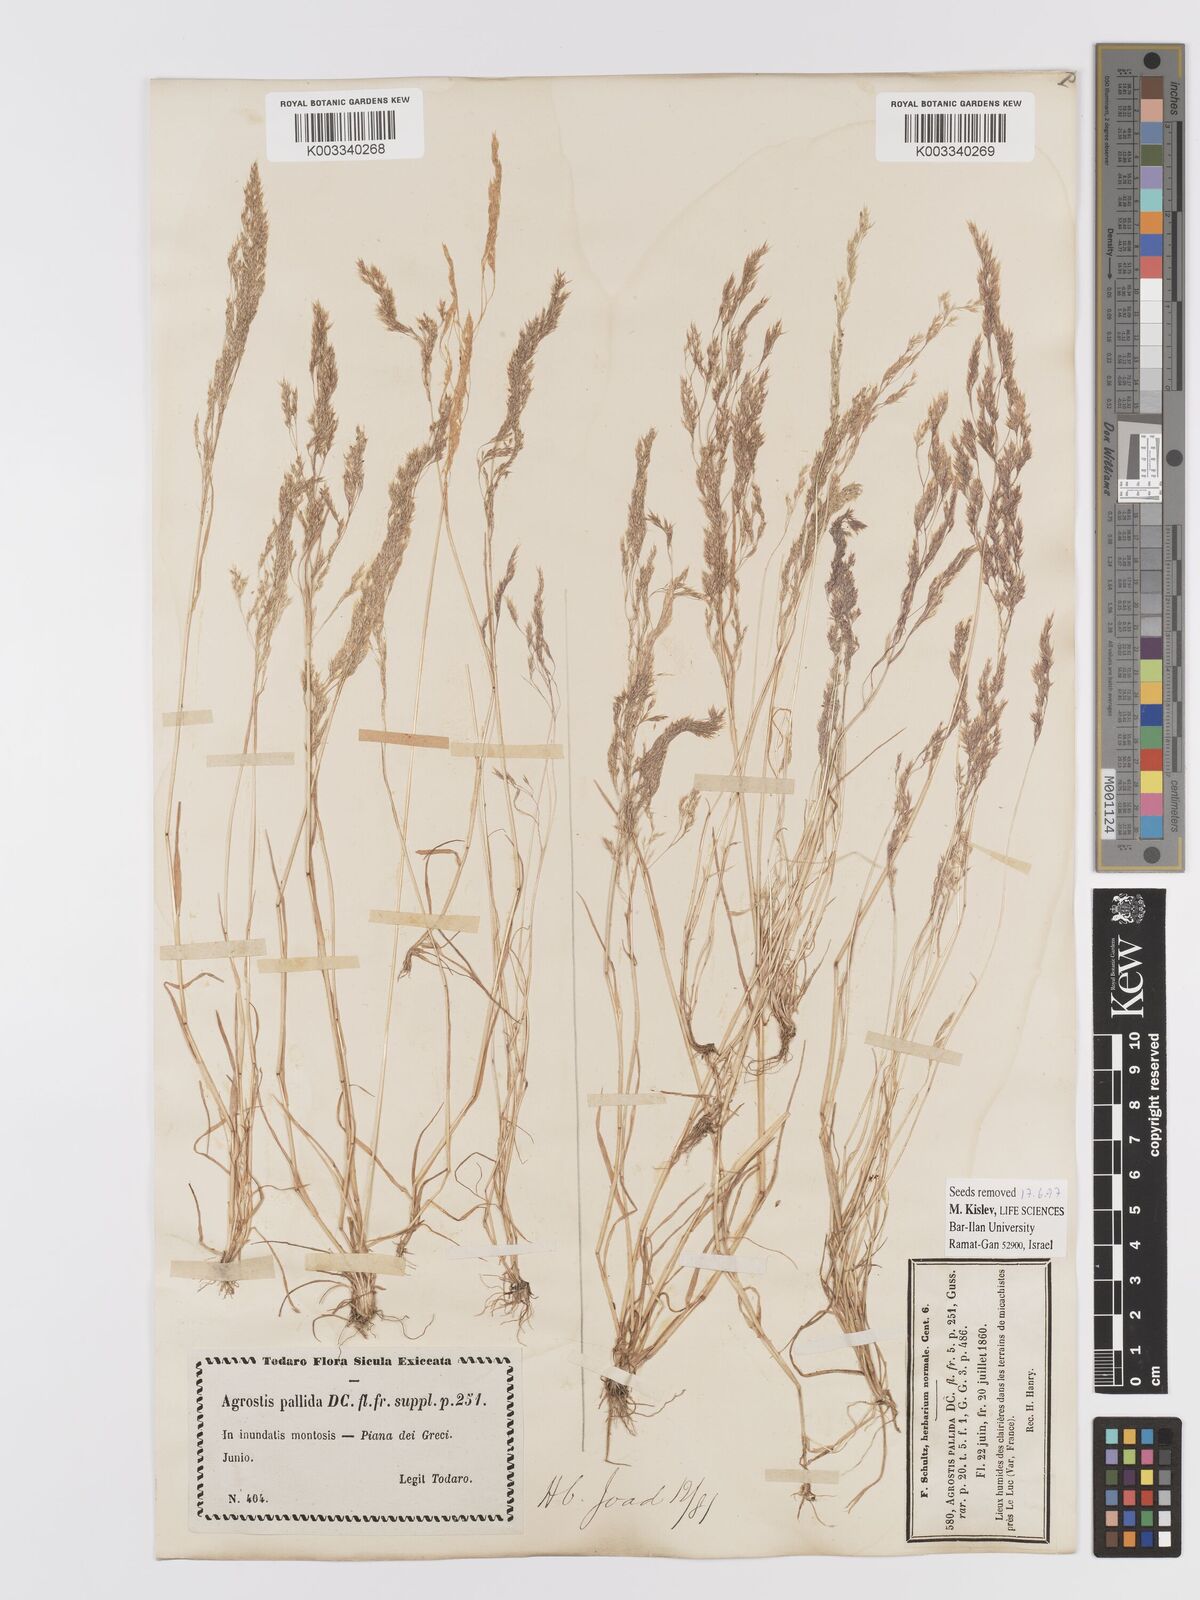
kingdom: Plantae
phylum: Tracheophyta
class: Liliopsida
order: Poales
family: Poaceae
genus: Agrostis
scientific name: Agrostis pourretii
